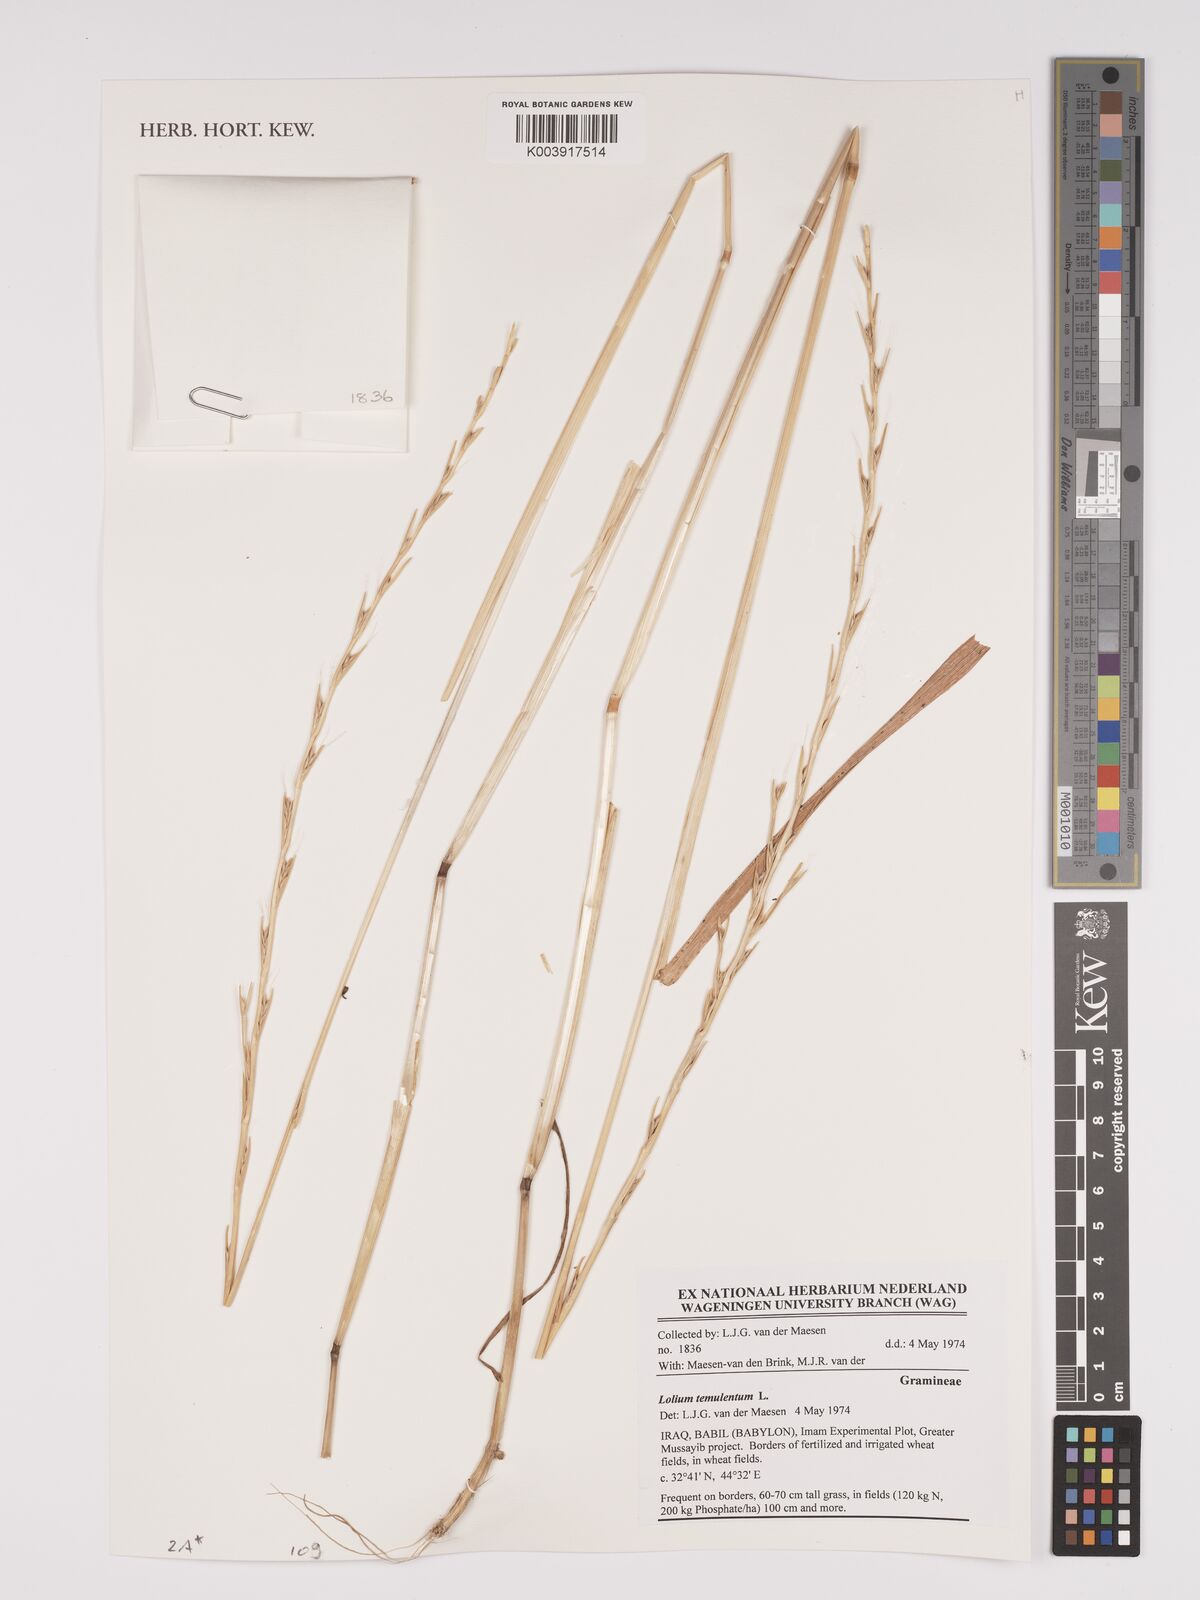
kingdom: Plantae
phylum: Tracheophyta
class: Liliopsida
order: Poales
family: Poaceae
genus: Lolium
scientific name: Lolium temulentum
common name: Darnel
